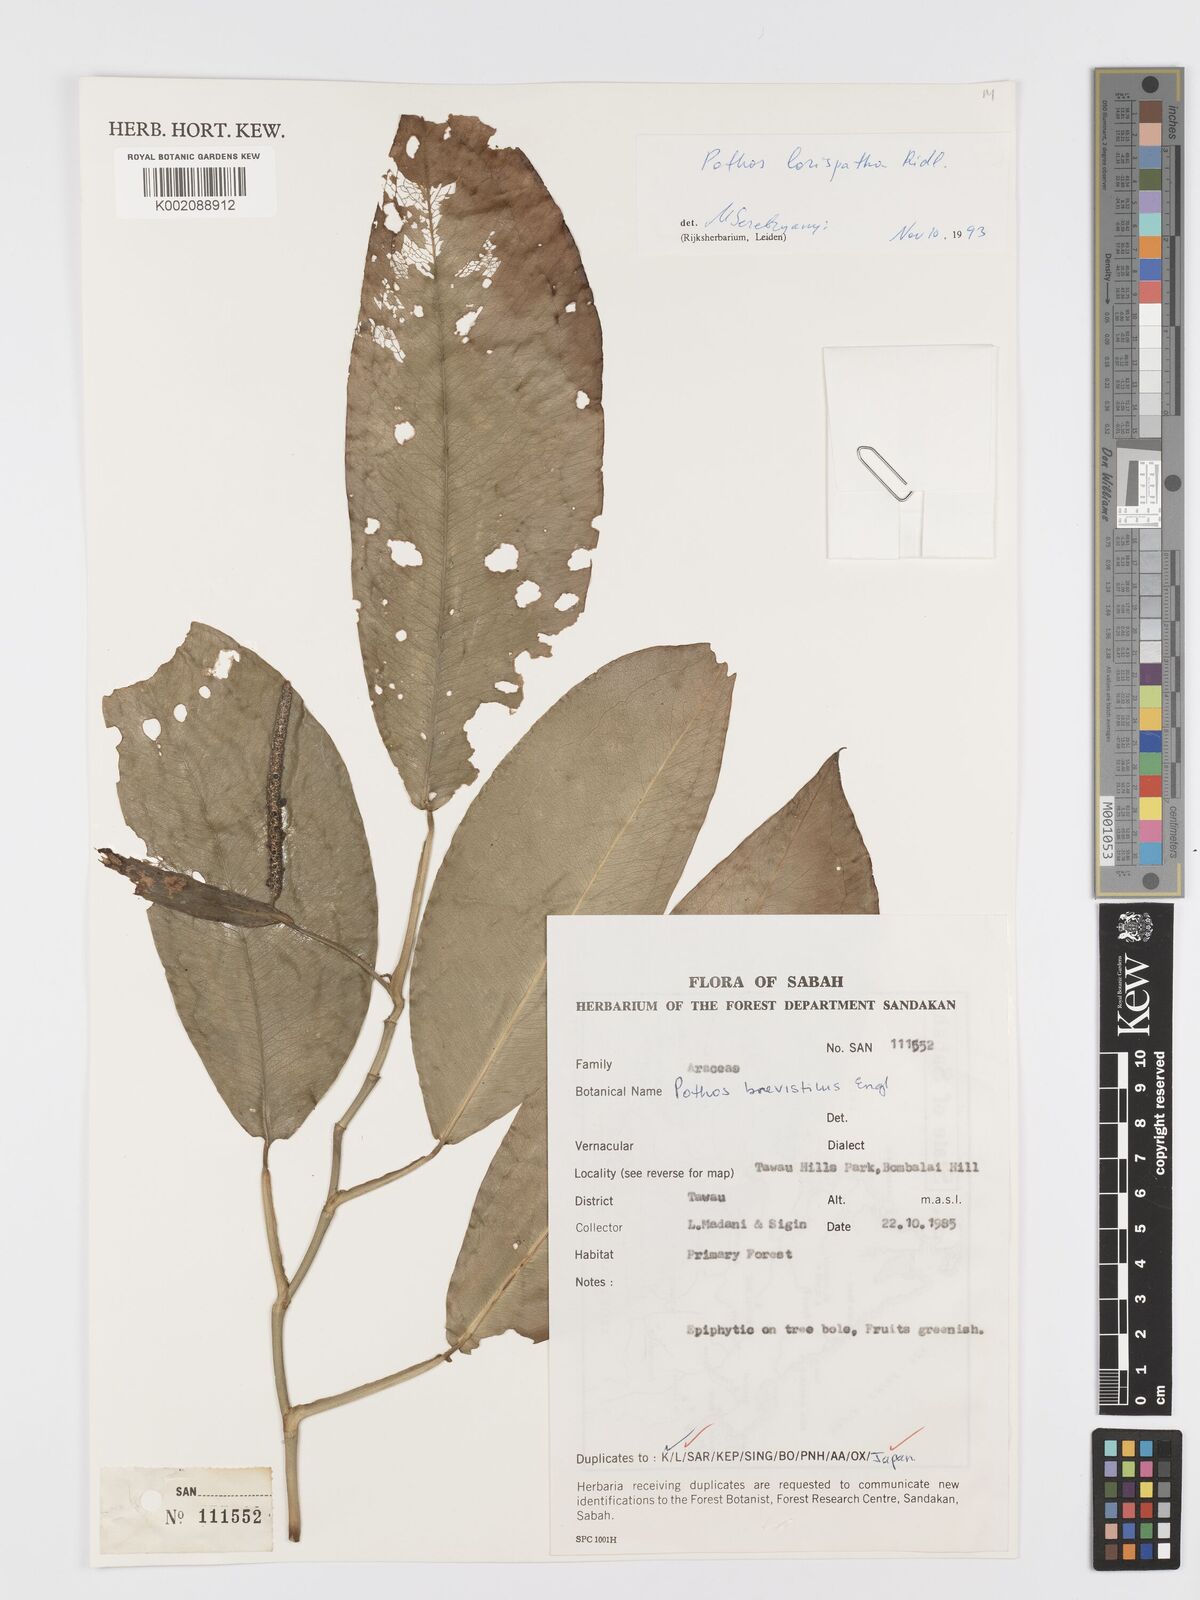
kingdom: Plantae
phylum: Tracheophyta
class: Liliopsida
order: Alismatales
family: Araceae
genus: Pothos
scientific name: Pothos brevistylus
